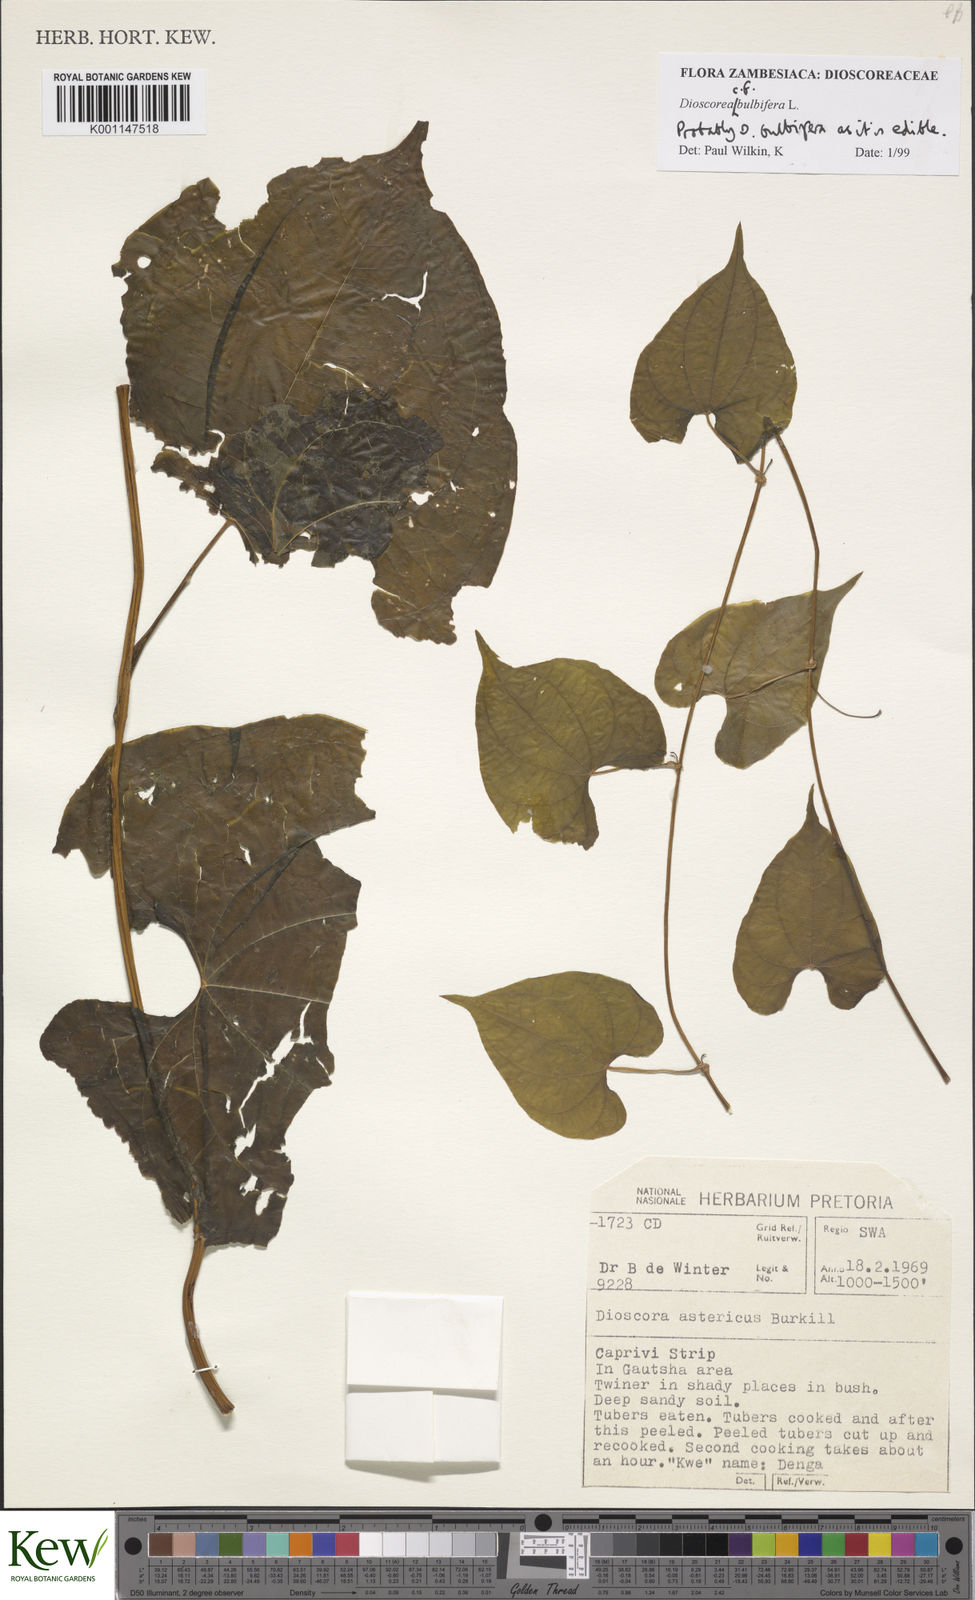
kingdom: Plantae
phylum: Tracheophyta
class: Liliopsida
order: Dioscoreales
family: Dioscoreaceae
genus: Dioscorea
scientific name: Dioscorea bulbifera
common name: Air yam
